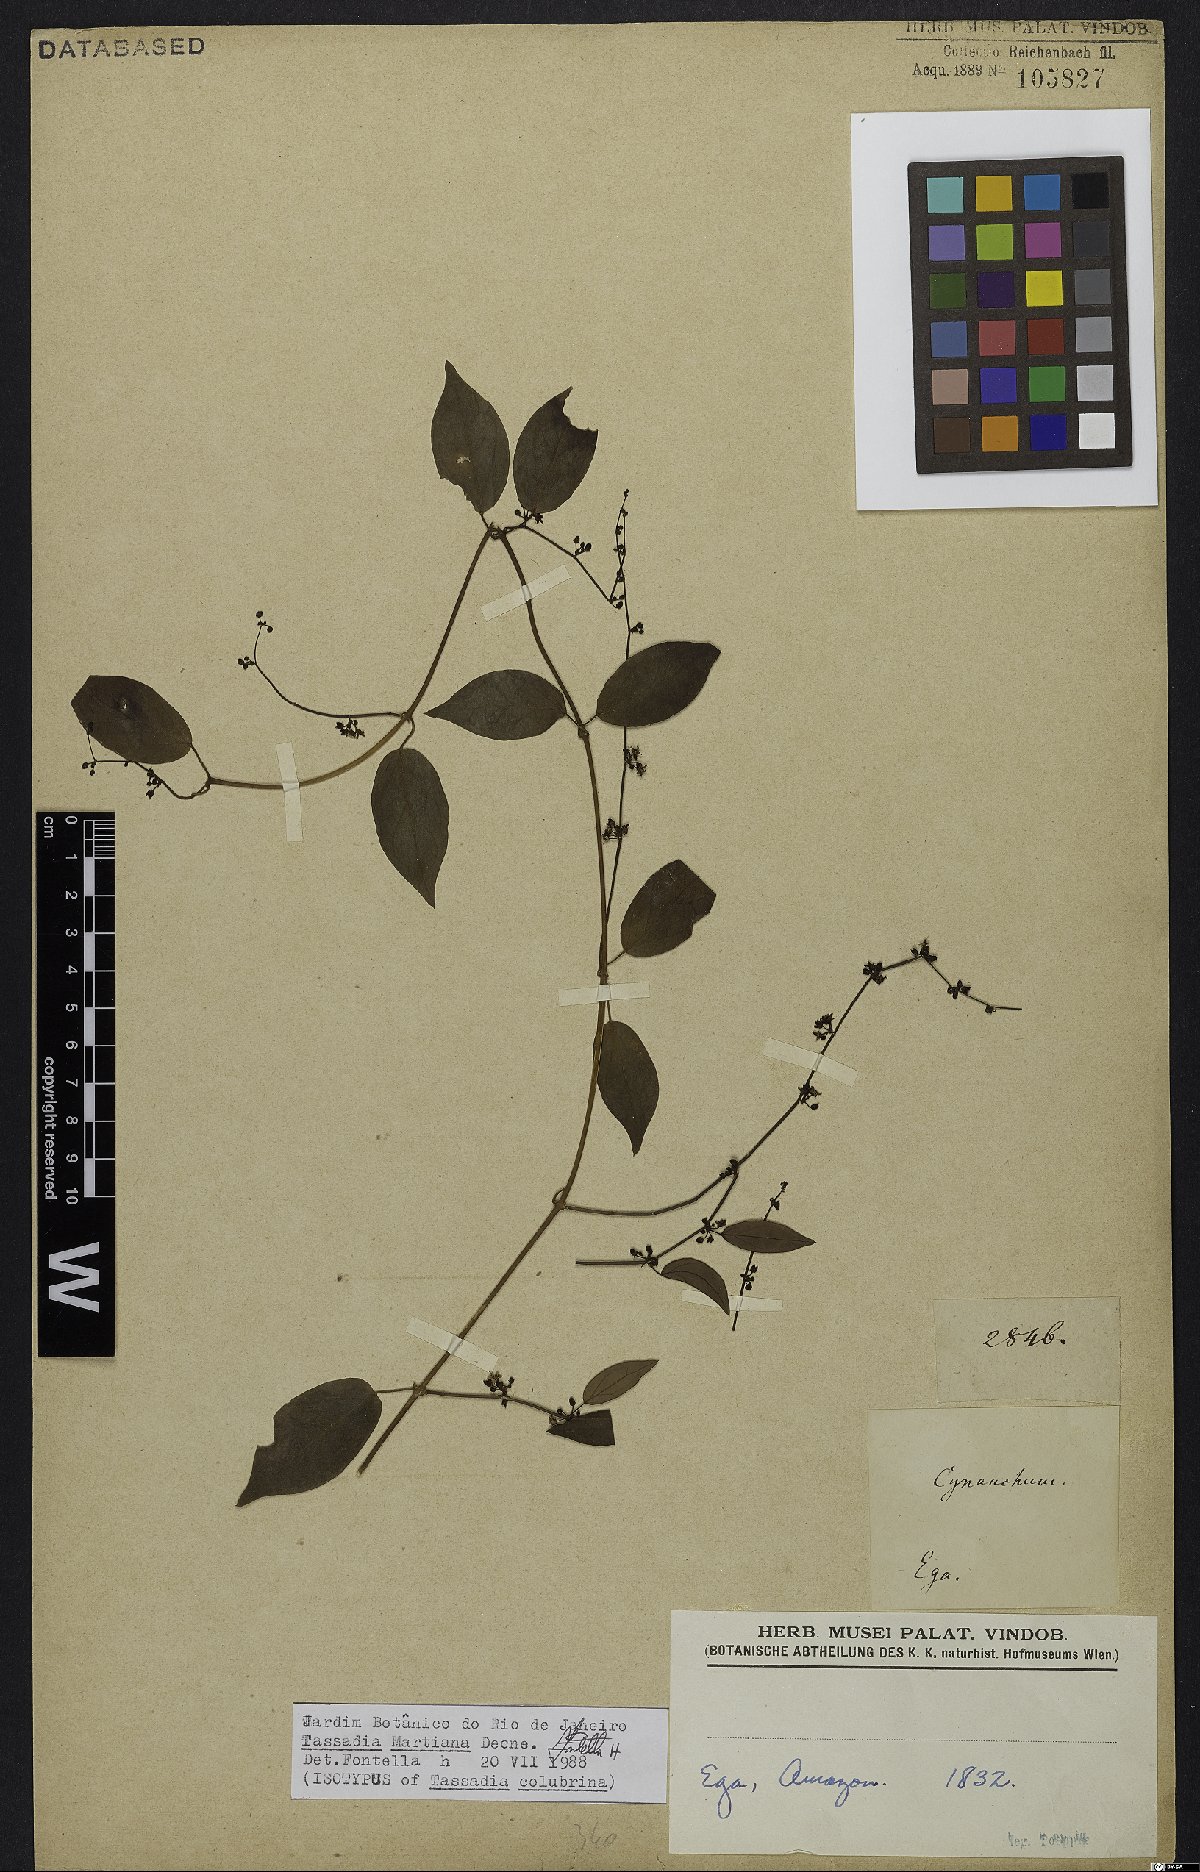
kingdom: Plantae
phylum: Tracheophyta
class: Magnoliopsida
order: Gentianales
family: Apocynaceae
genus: Tassadia
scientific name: Tassadia martiana
